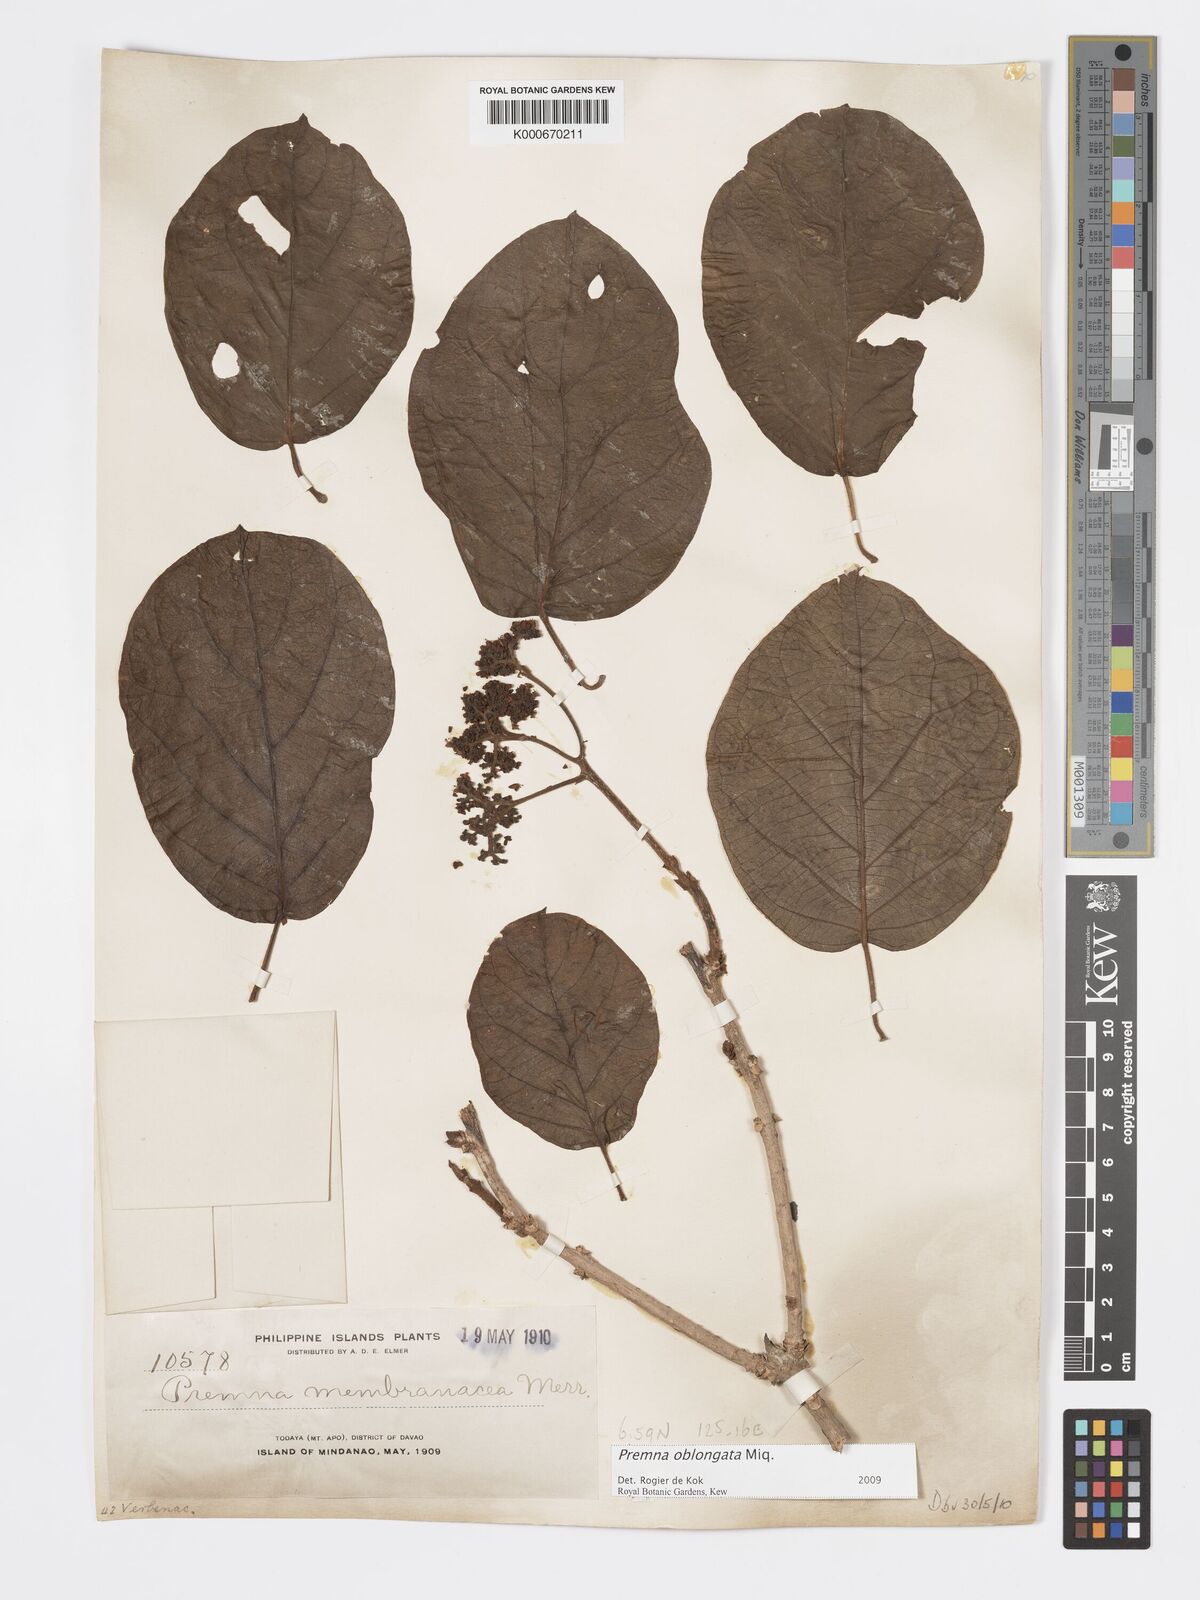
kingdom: Plantae
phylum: Tracheophyta
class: Magnoliopsida
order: Lamiales
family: Lamiaceae
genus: Premna
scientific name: Premna oblongata
